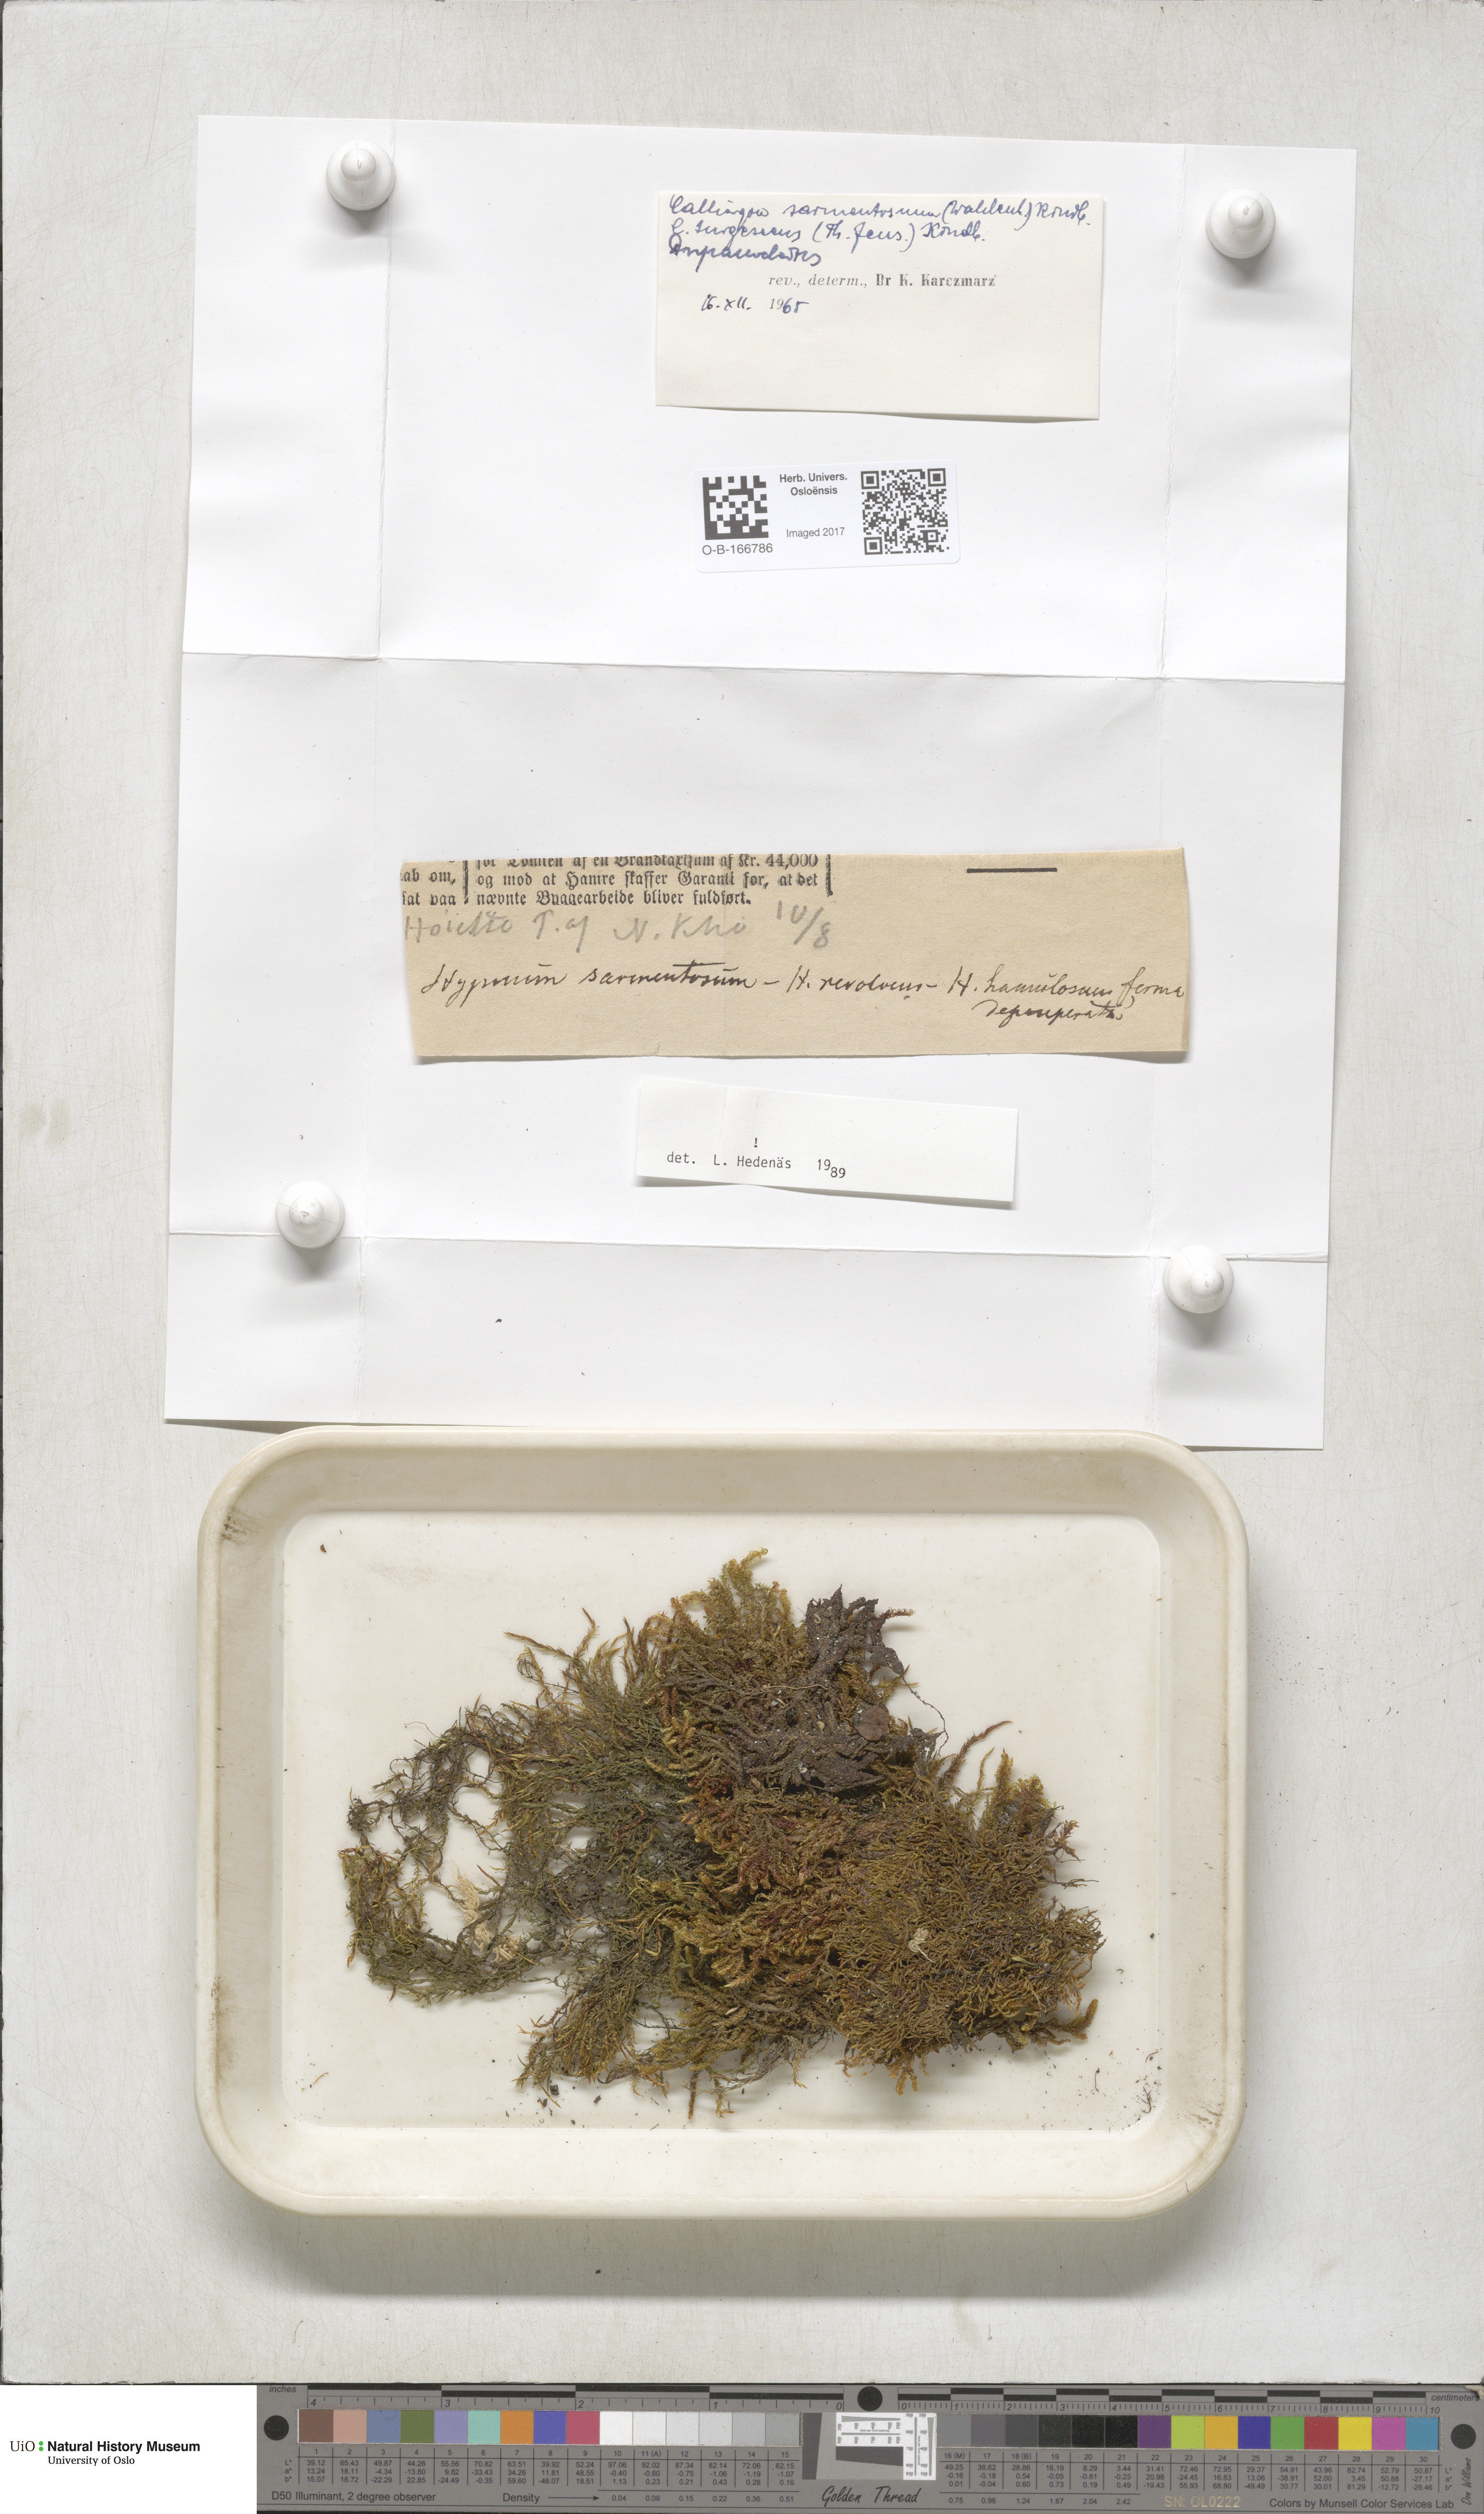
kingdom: Plantae
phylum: Bryophyta
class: Bryopsida
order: Hypnales
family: Amblystegiaceae
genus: Drepanocladus
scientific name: Drepanocladus turgescens
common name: Large yellow feather-moss
